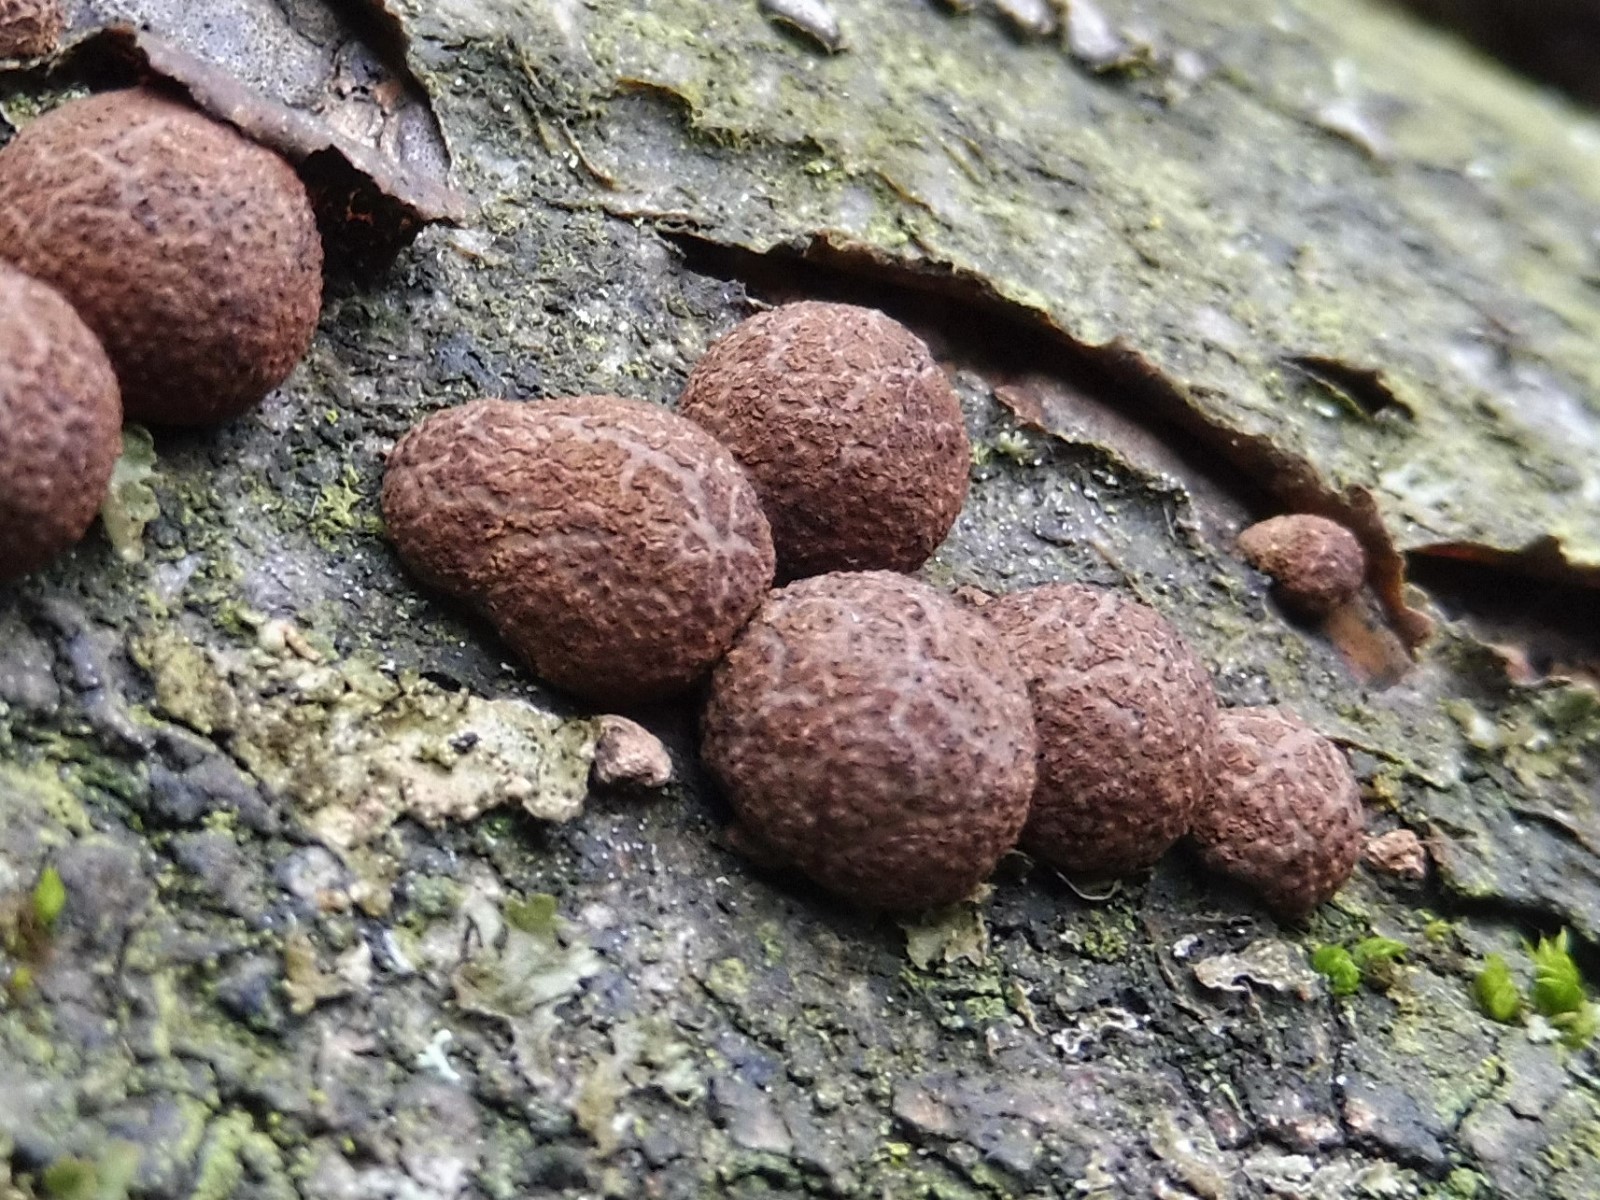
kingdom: Fungi
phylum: Ascomycota
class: Sordariomycetes
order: Xylariales
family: Hypoxylaceae
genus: Hypoxylon
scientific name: Hypoxylon fragiforme
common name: kuljordbær
